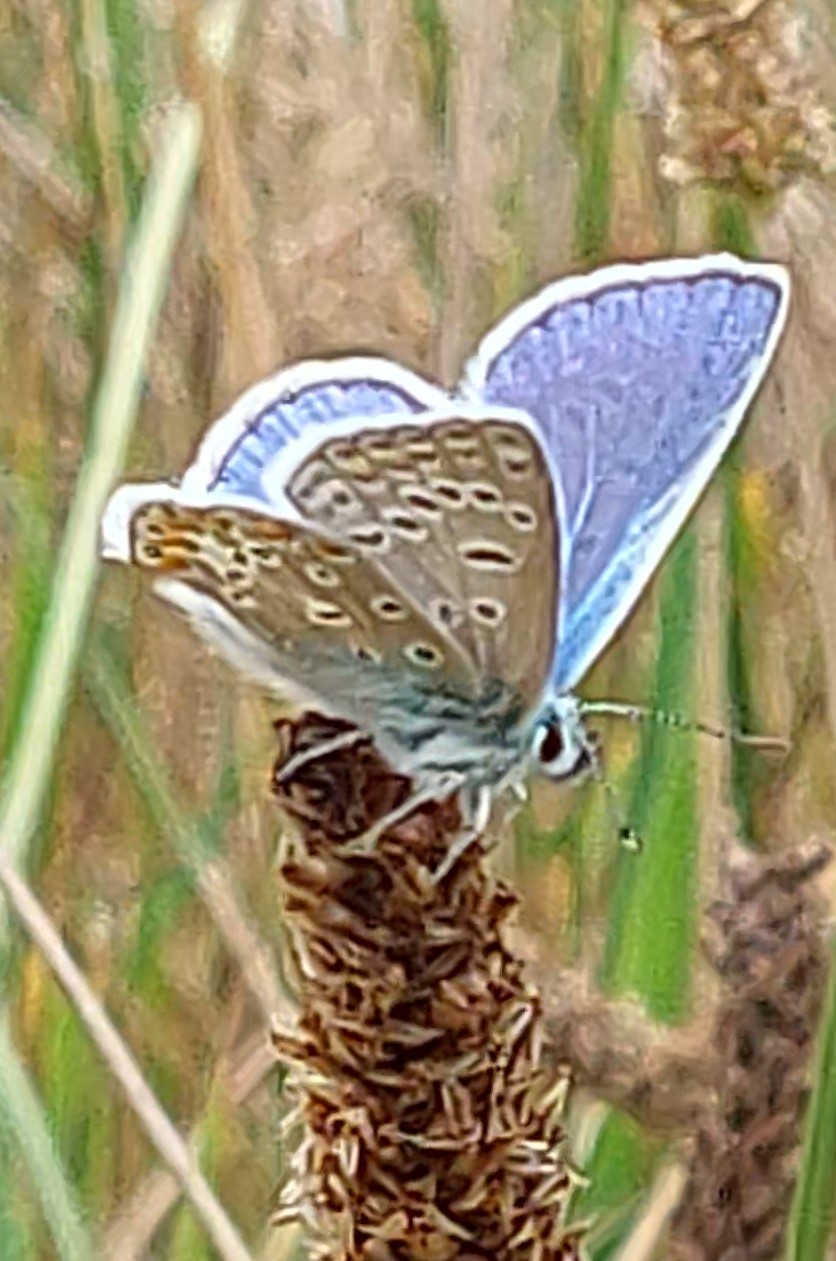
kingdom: Animalia
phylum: Arthropoda
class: Insecta
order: Lepidoptera
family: Lycaenidae
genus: Polyommatus
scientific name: Polyommatus icarus
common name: Almindelig blåfugl
